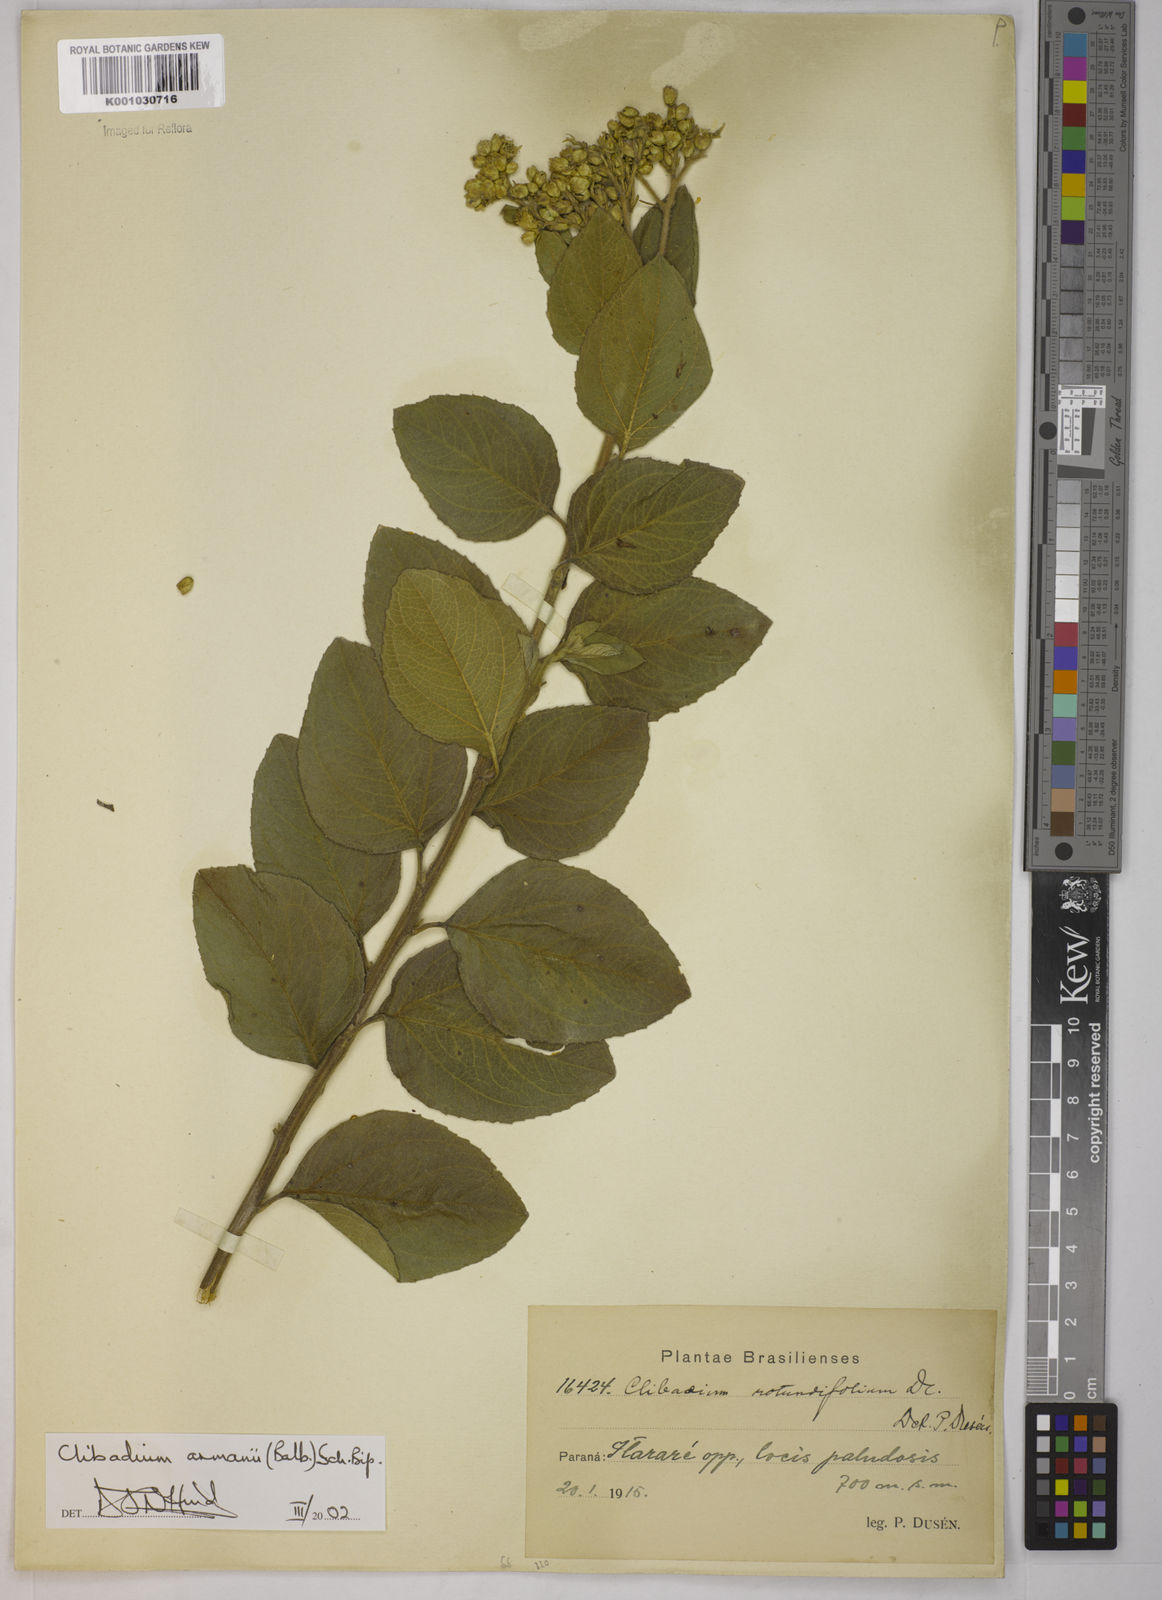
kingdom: Plantae
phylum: Tracheophyta
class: Magnoliopsida
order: Asterales
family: Asteraceae
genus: Clibadium
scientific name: Clibadium armanii
